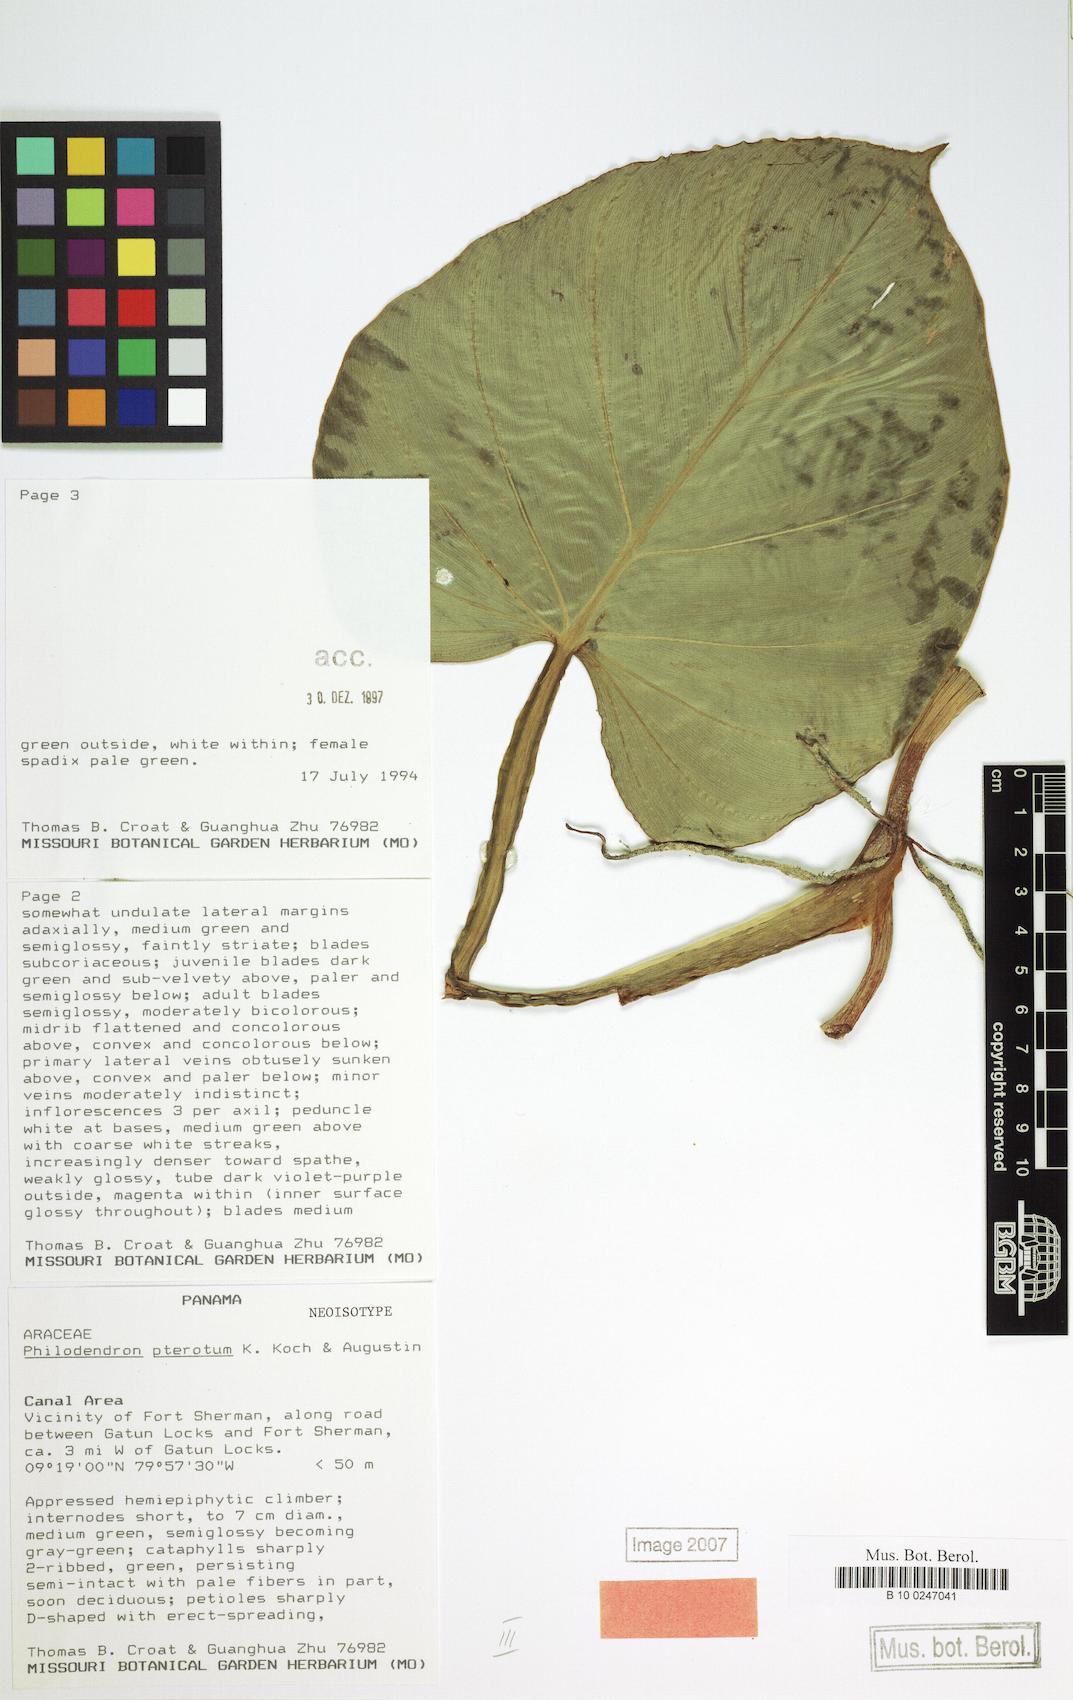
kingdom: Plantae
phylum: Tracheophyta
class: Liliopsida
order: Alismatales
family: Araceae
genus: Philodendron
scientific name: Philodendron pterotum
